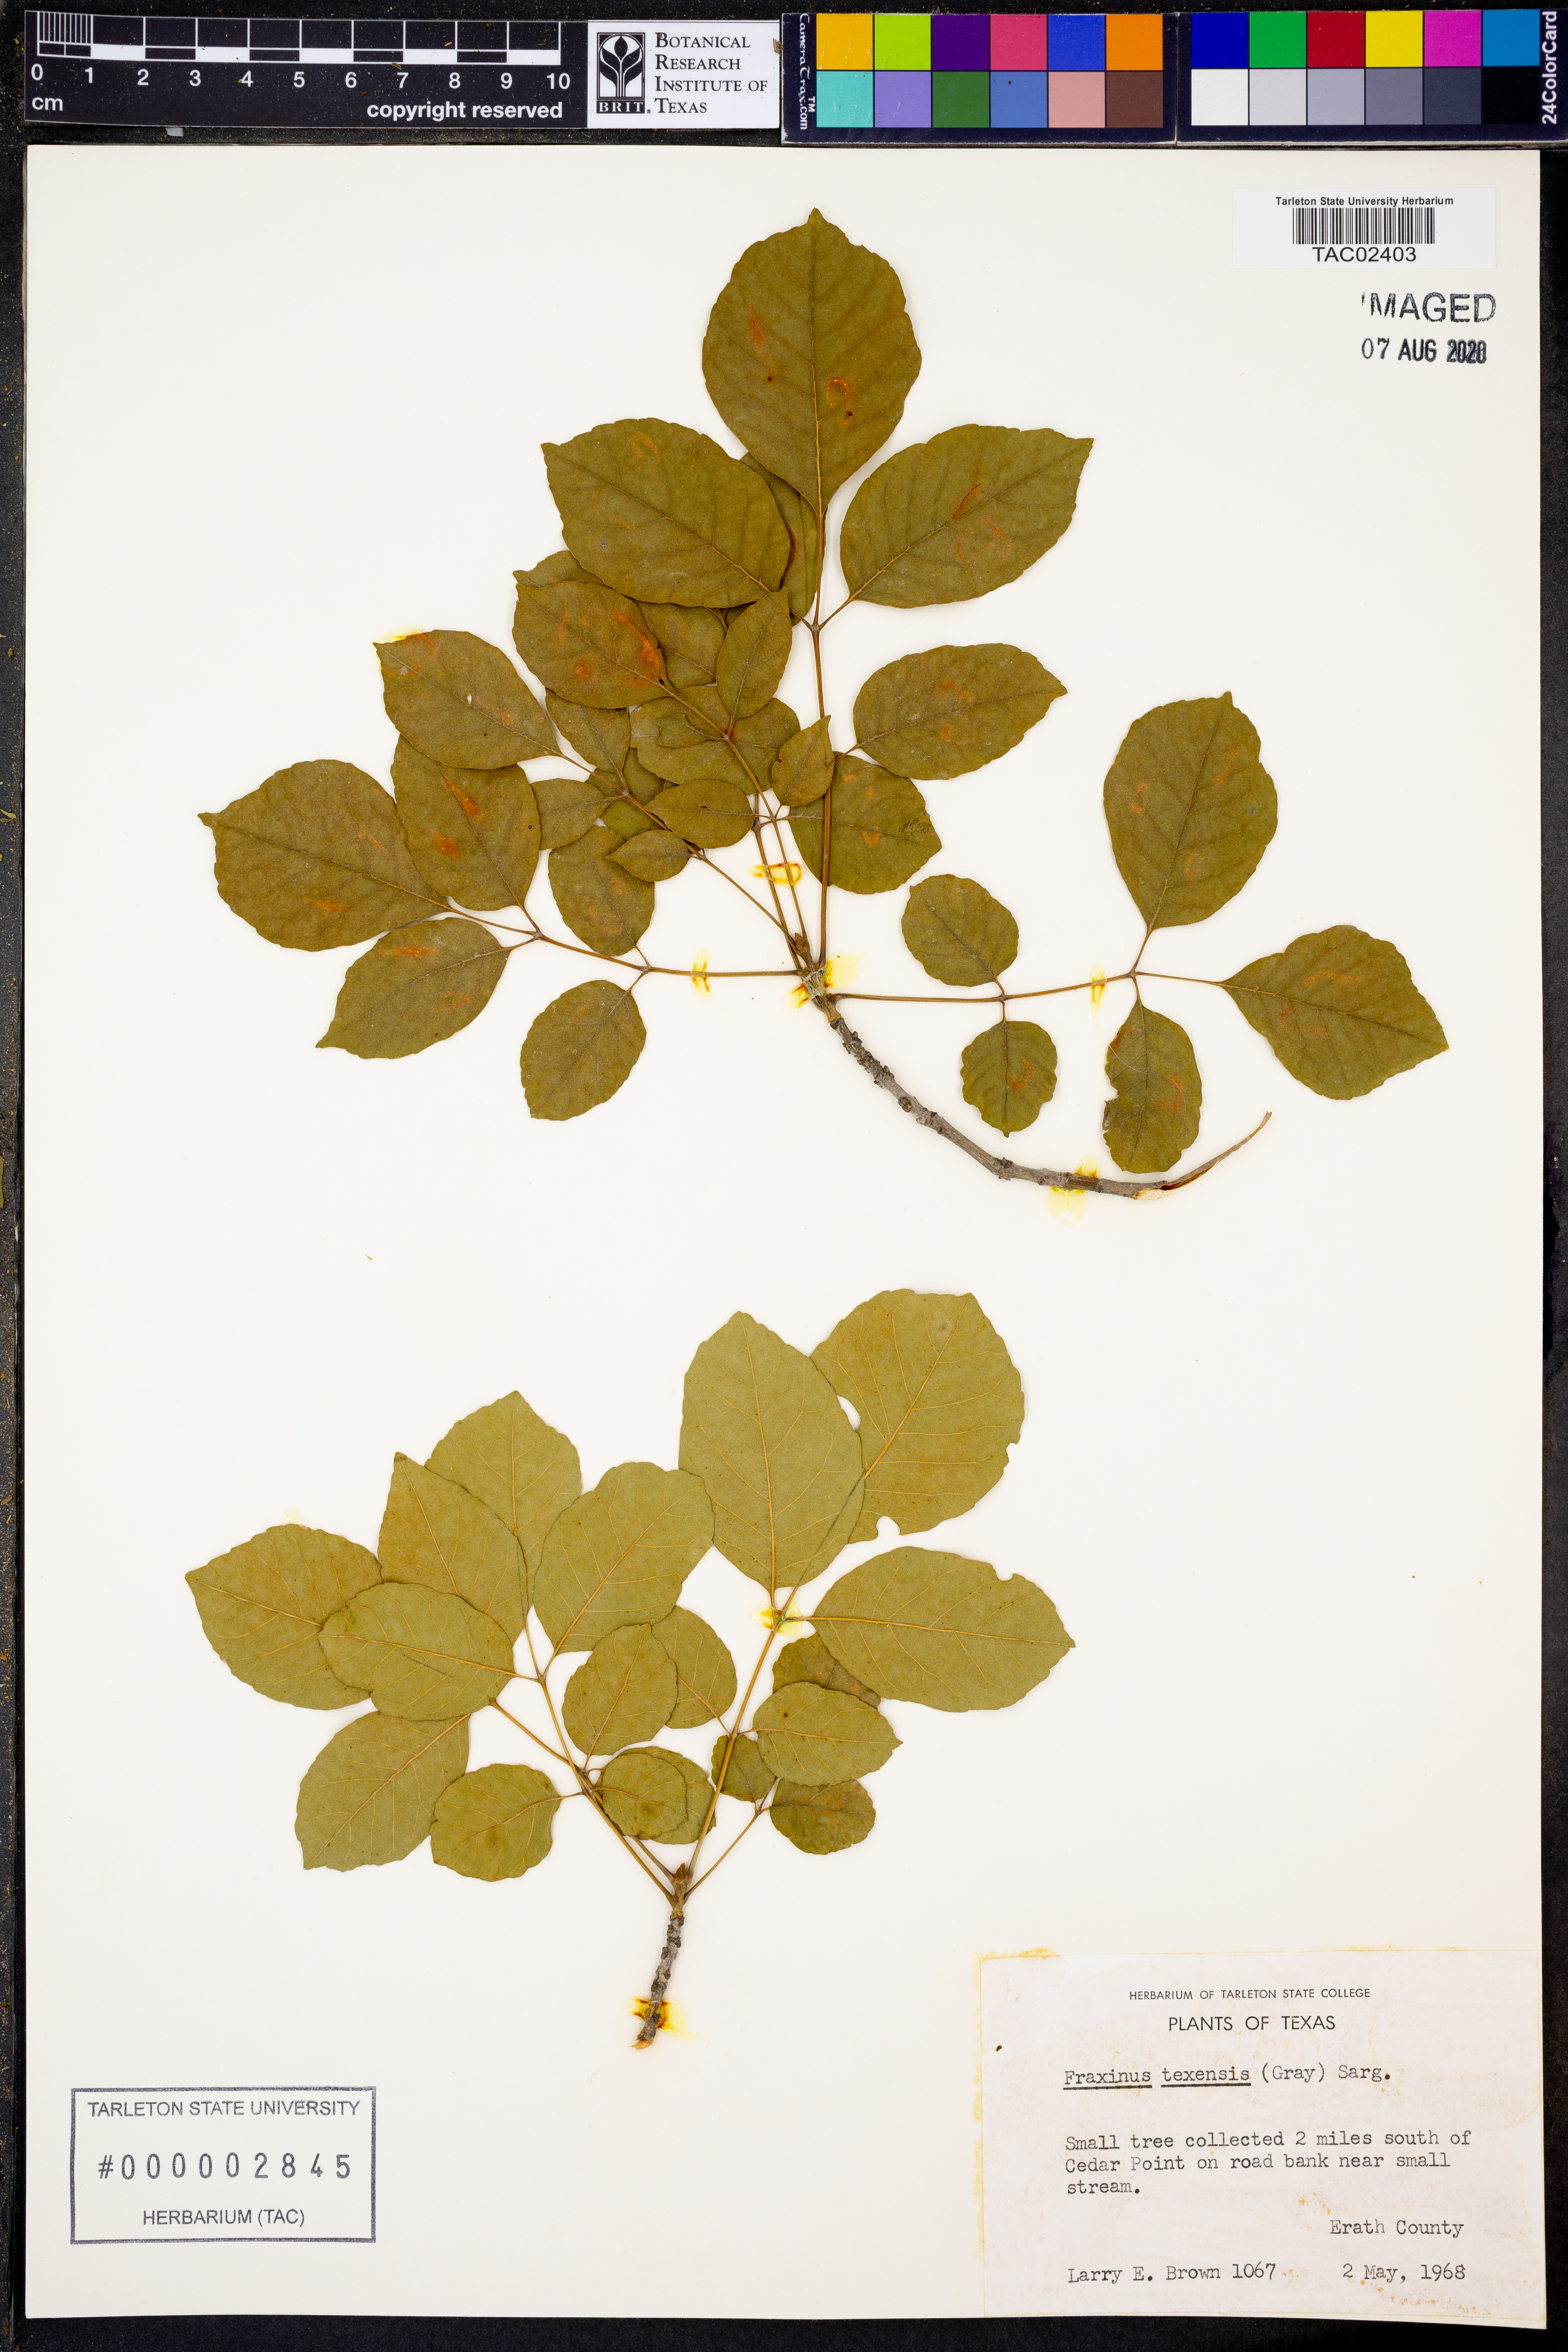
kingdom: Plantae
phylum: Tracheophyta
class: Magnoliopsida
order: Lamiales
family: Oleaceae
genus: Fraxinus
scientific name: Fraxinus albicans
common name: Texas ash
